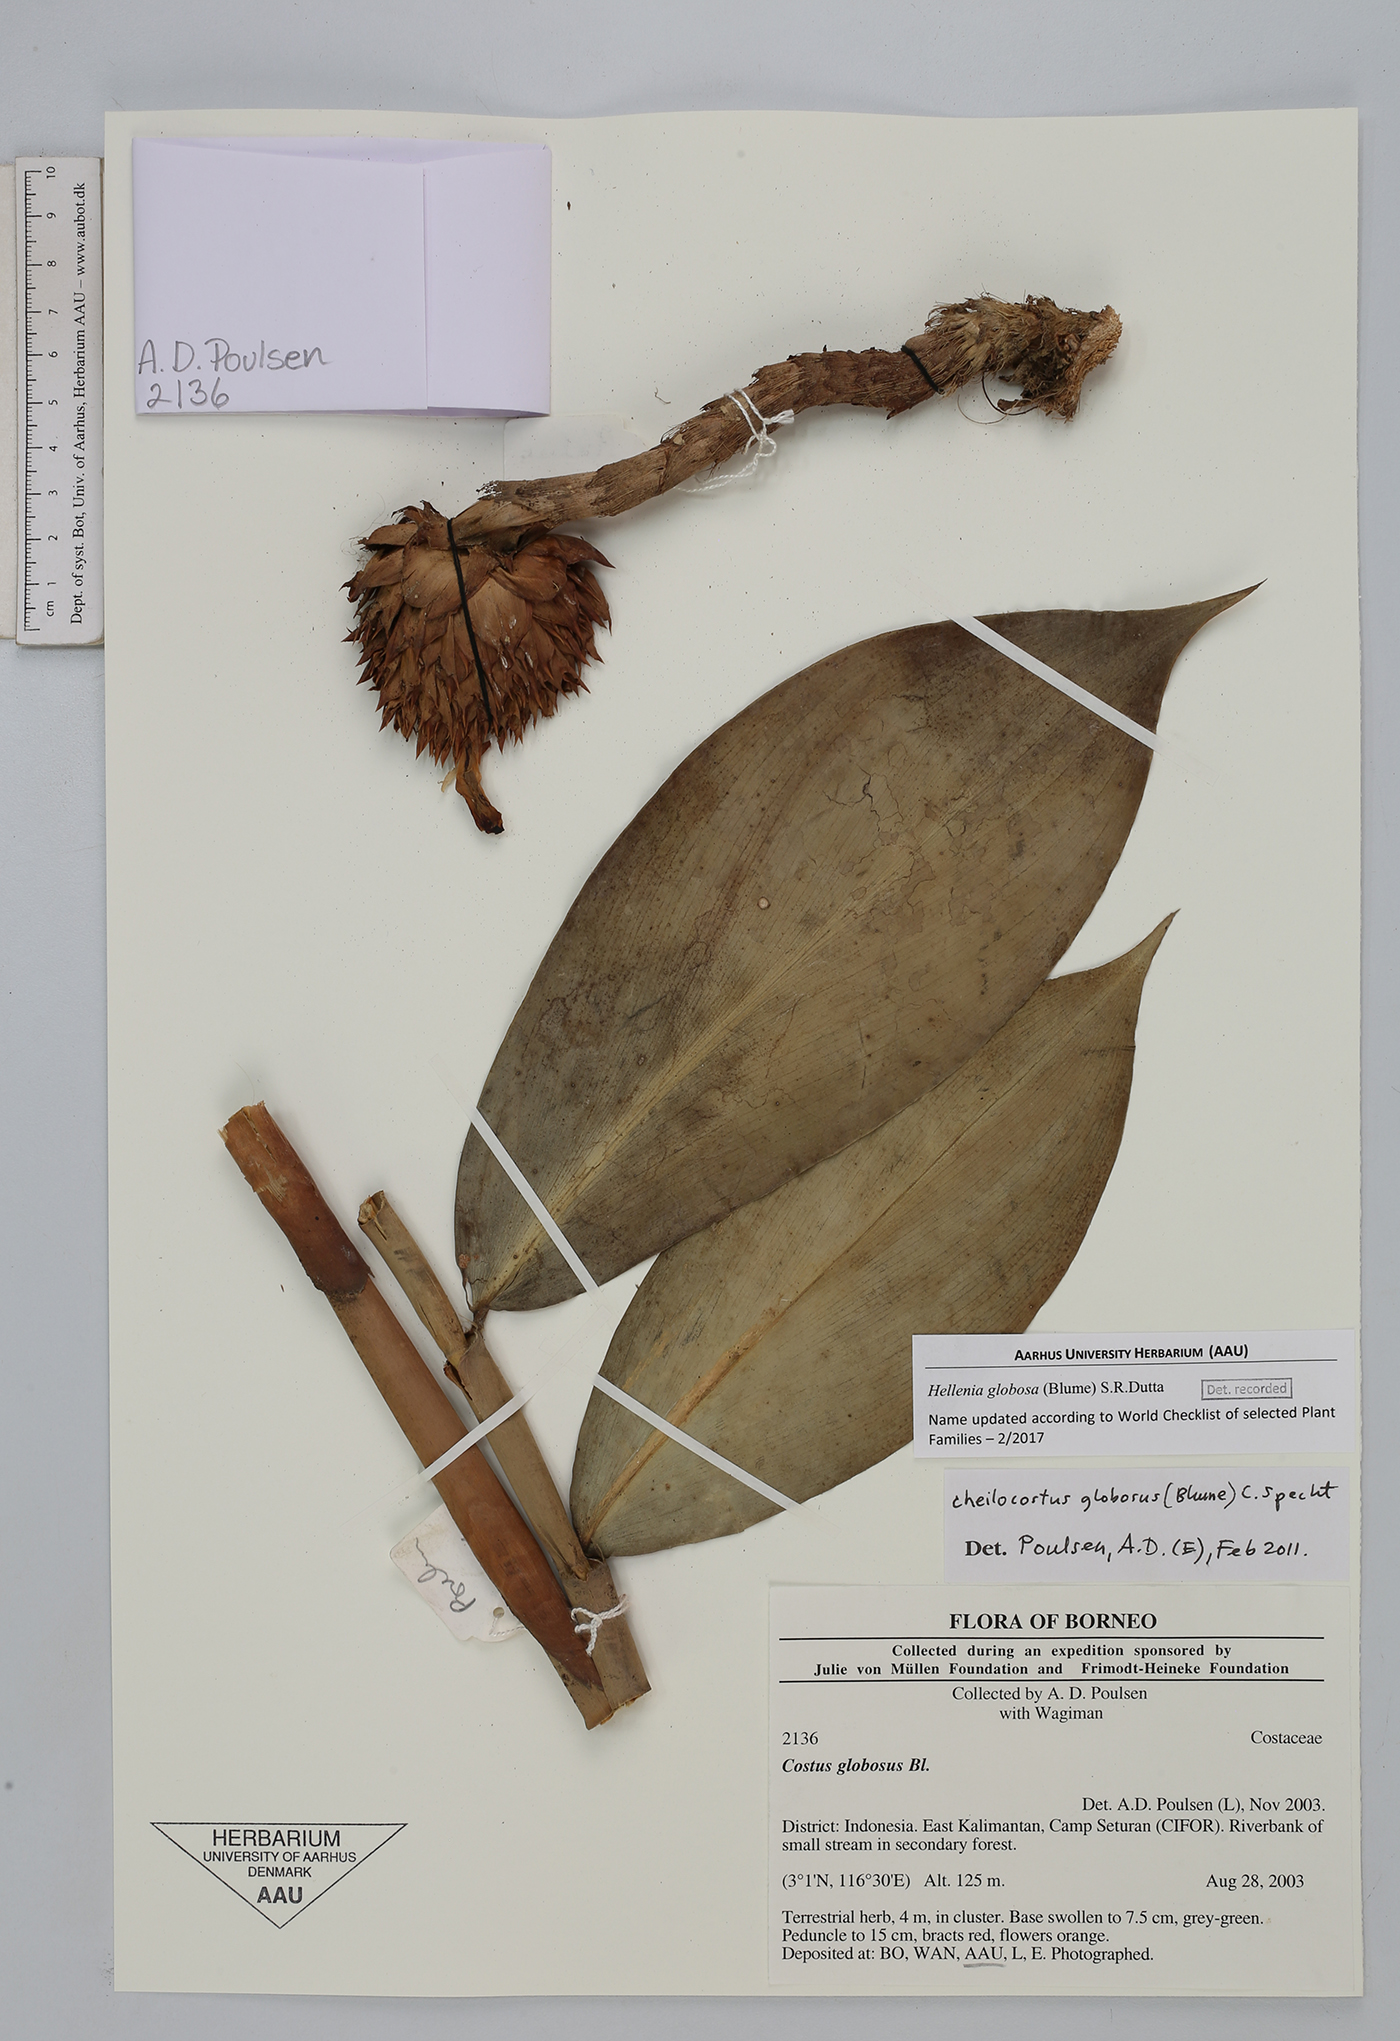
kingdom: Plantae
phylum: Tracheophyta
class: Liliopsida
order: Zingiberales
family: Costaceae
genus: Hellenia
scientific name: Hellenia globosa
